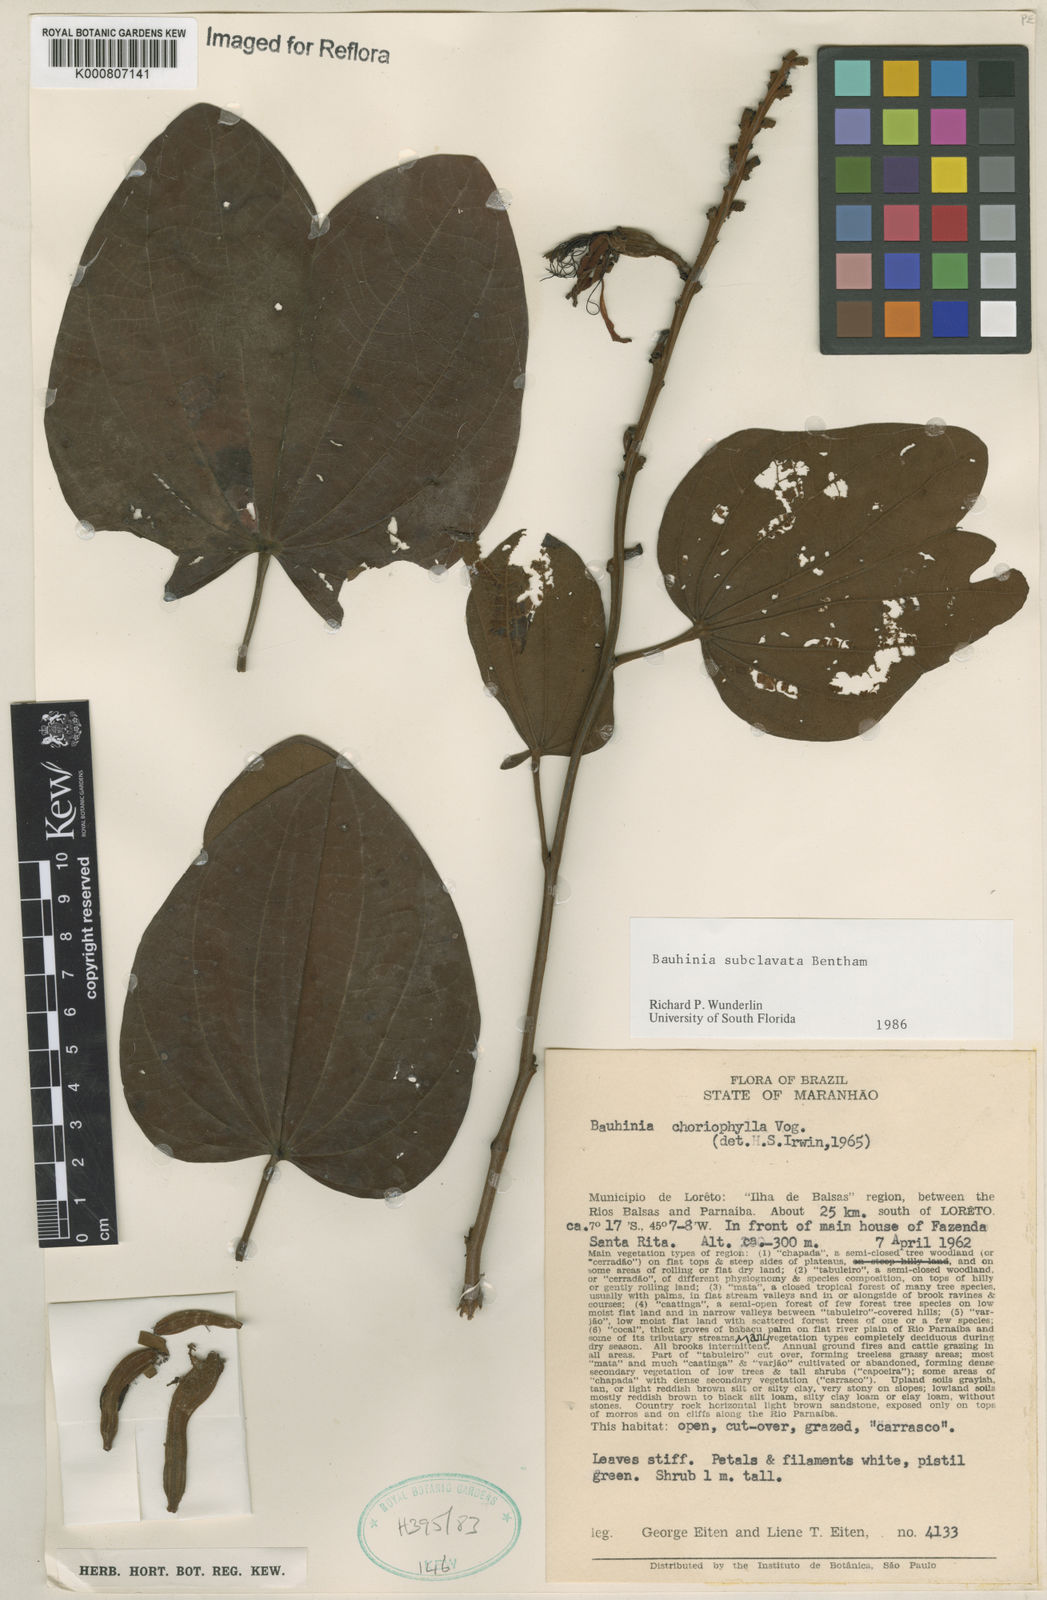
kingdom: Plantae
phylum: Tracheophyta
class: Magnoliopsida
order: Fabales
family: Fabaceae
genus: Bauhinia
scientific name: Bauhinia subclavata
